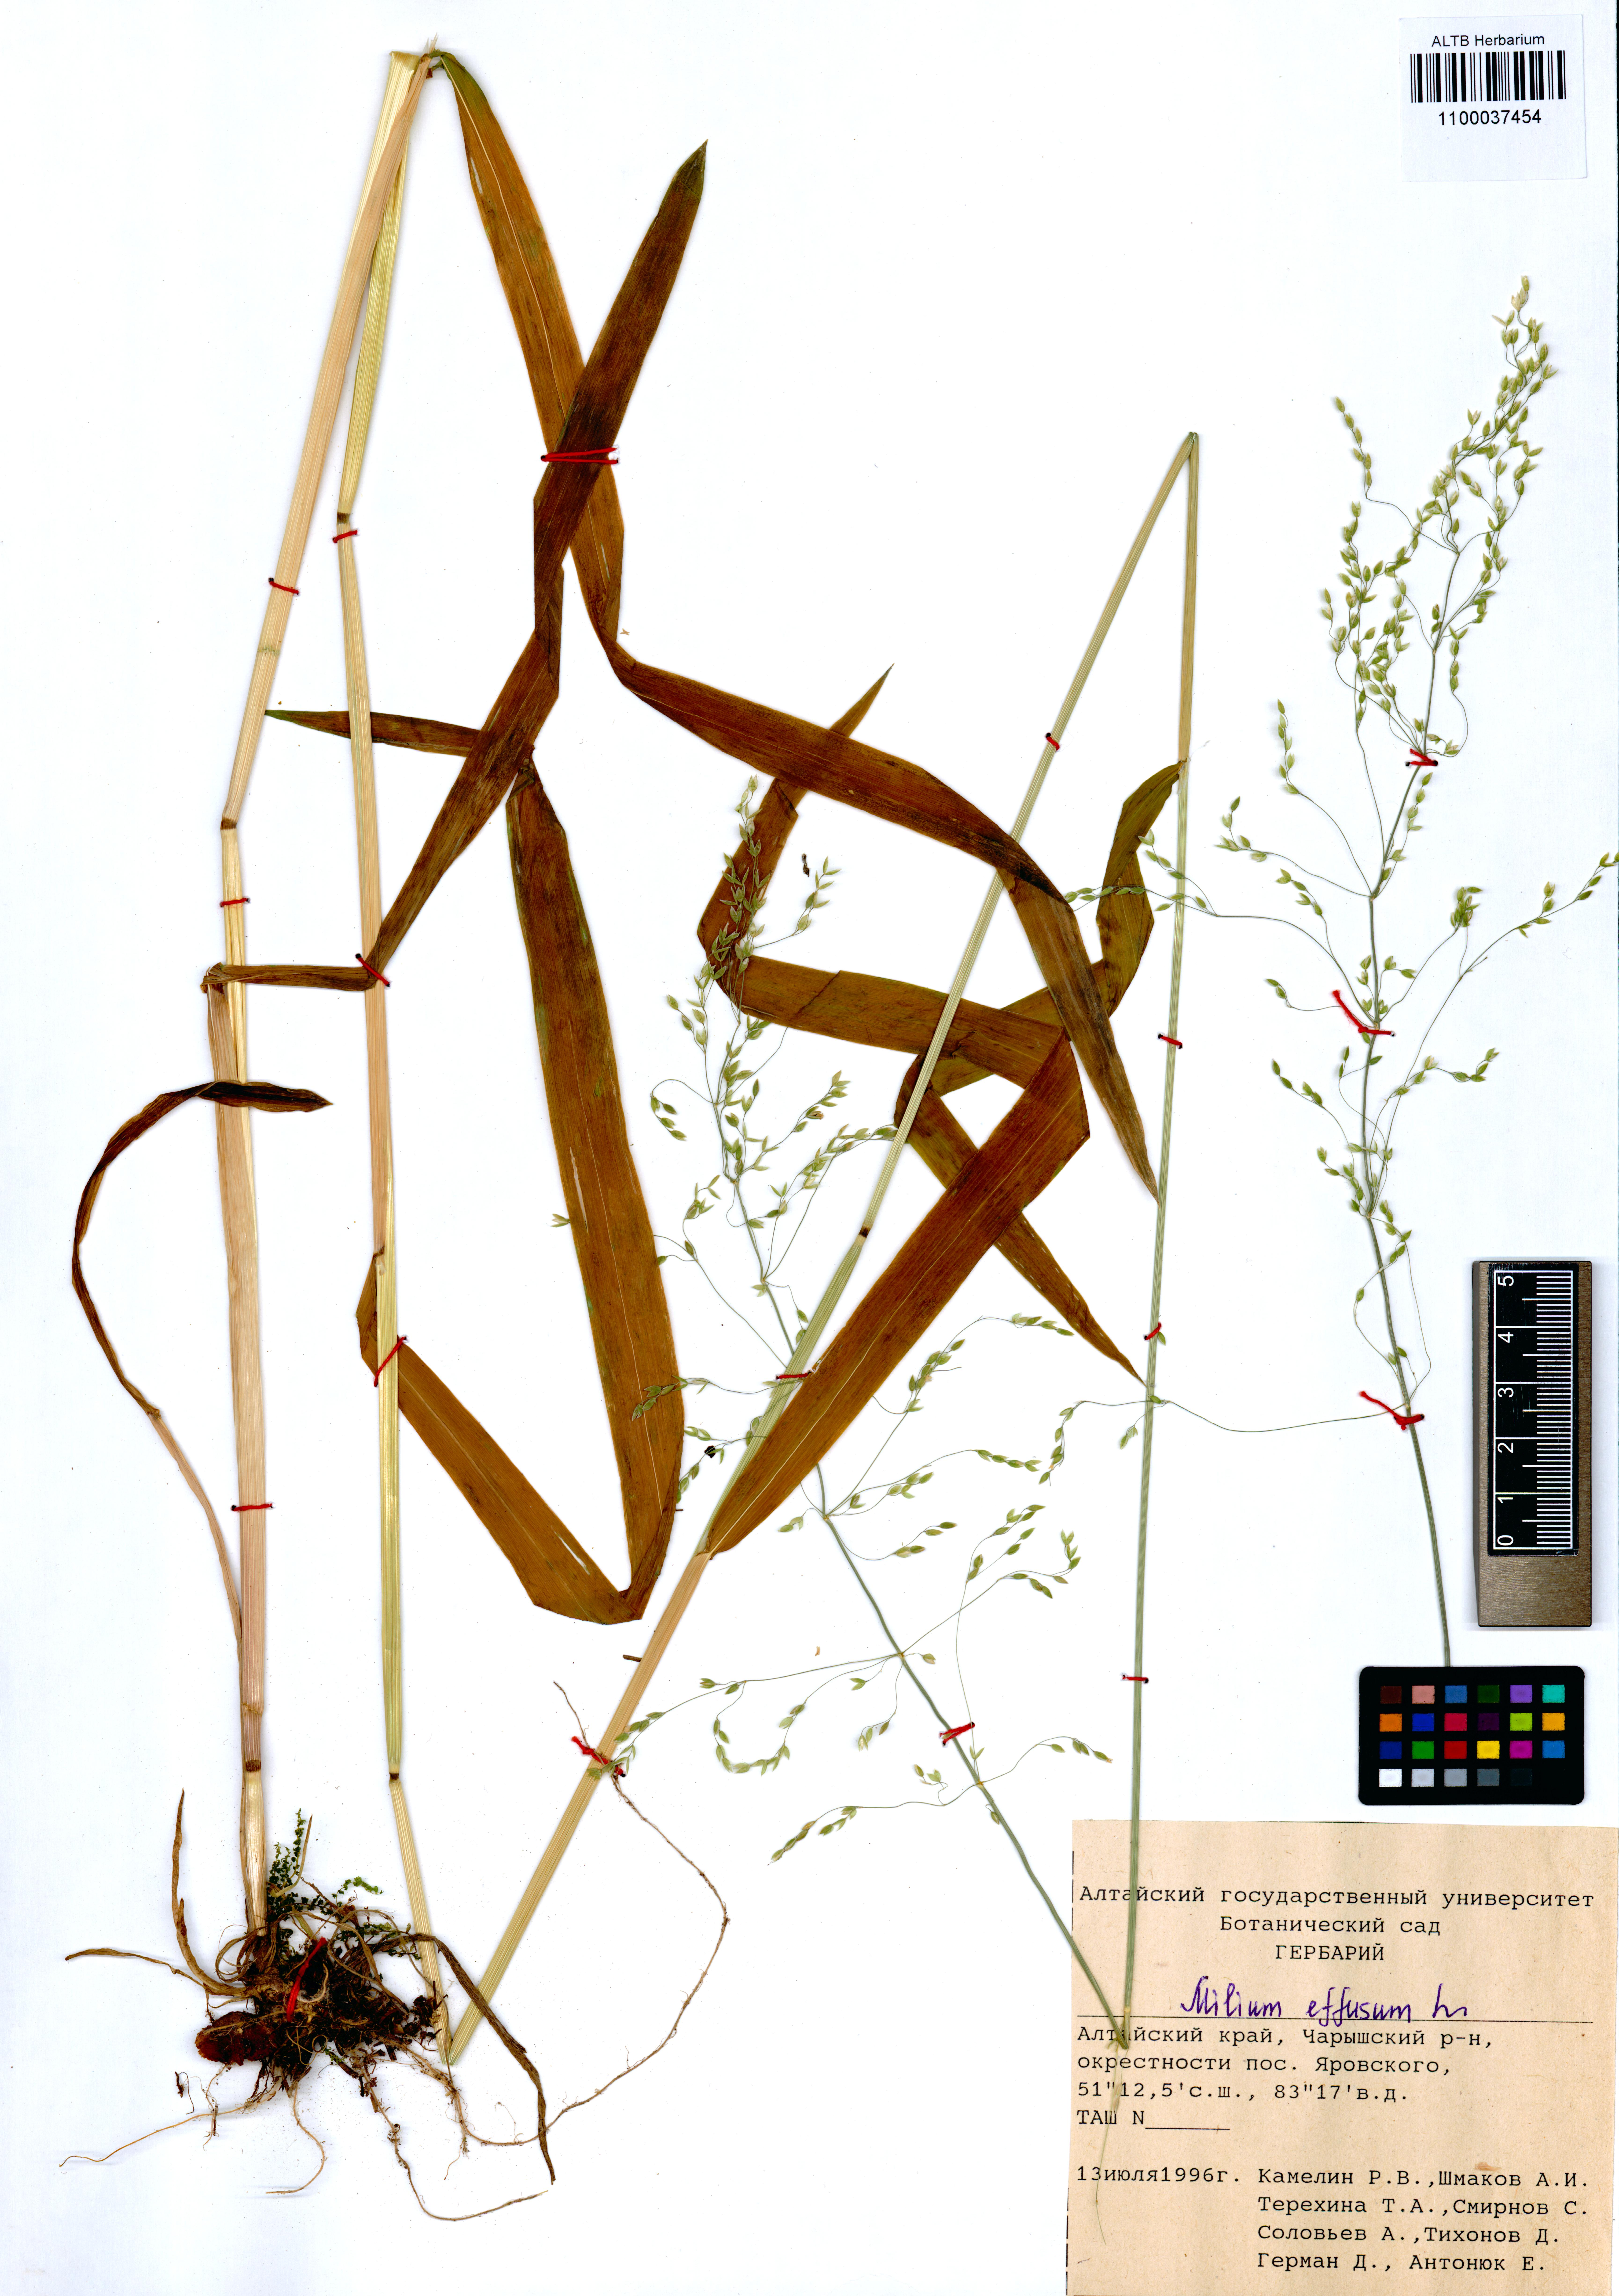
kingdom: Plantae
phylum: Tracheophyta
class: Liliopsida
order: Poales
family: Poaceae
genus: Milium
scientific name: Milium effusum
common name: Wood millet
